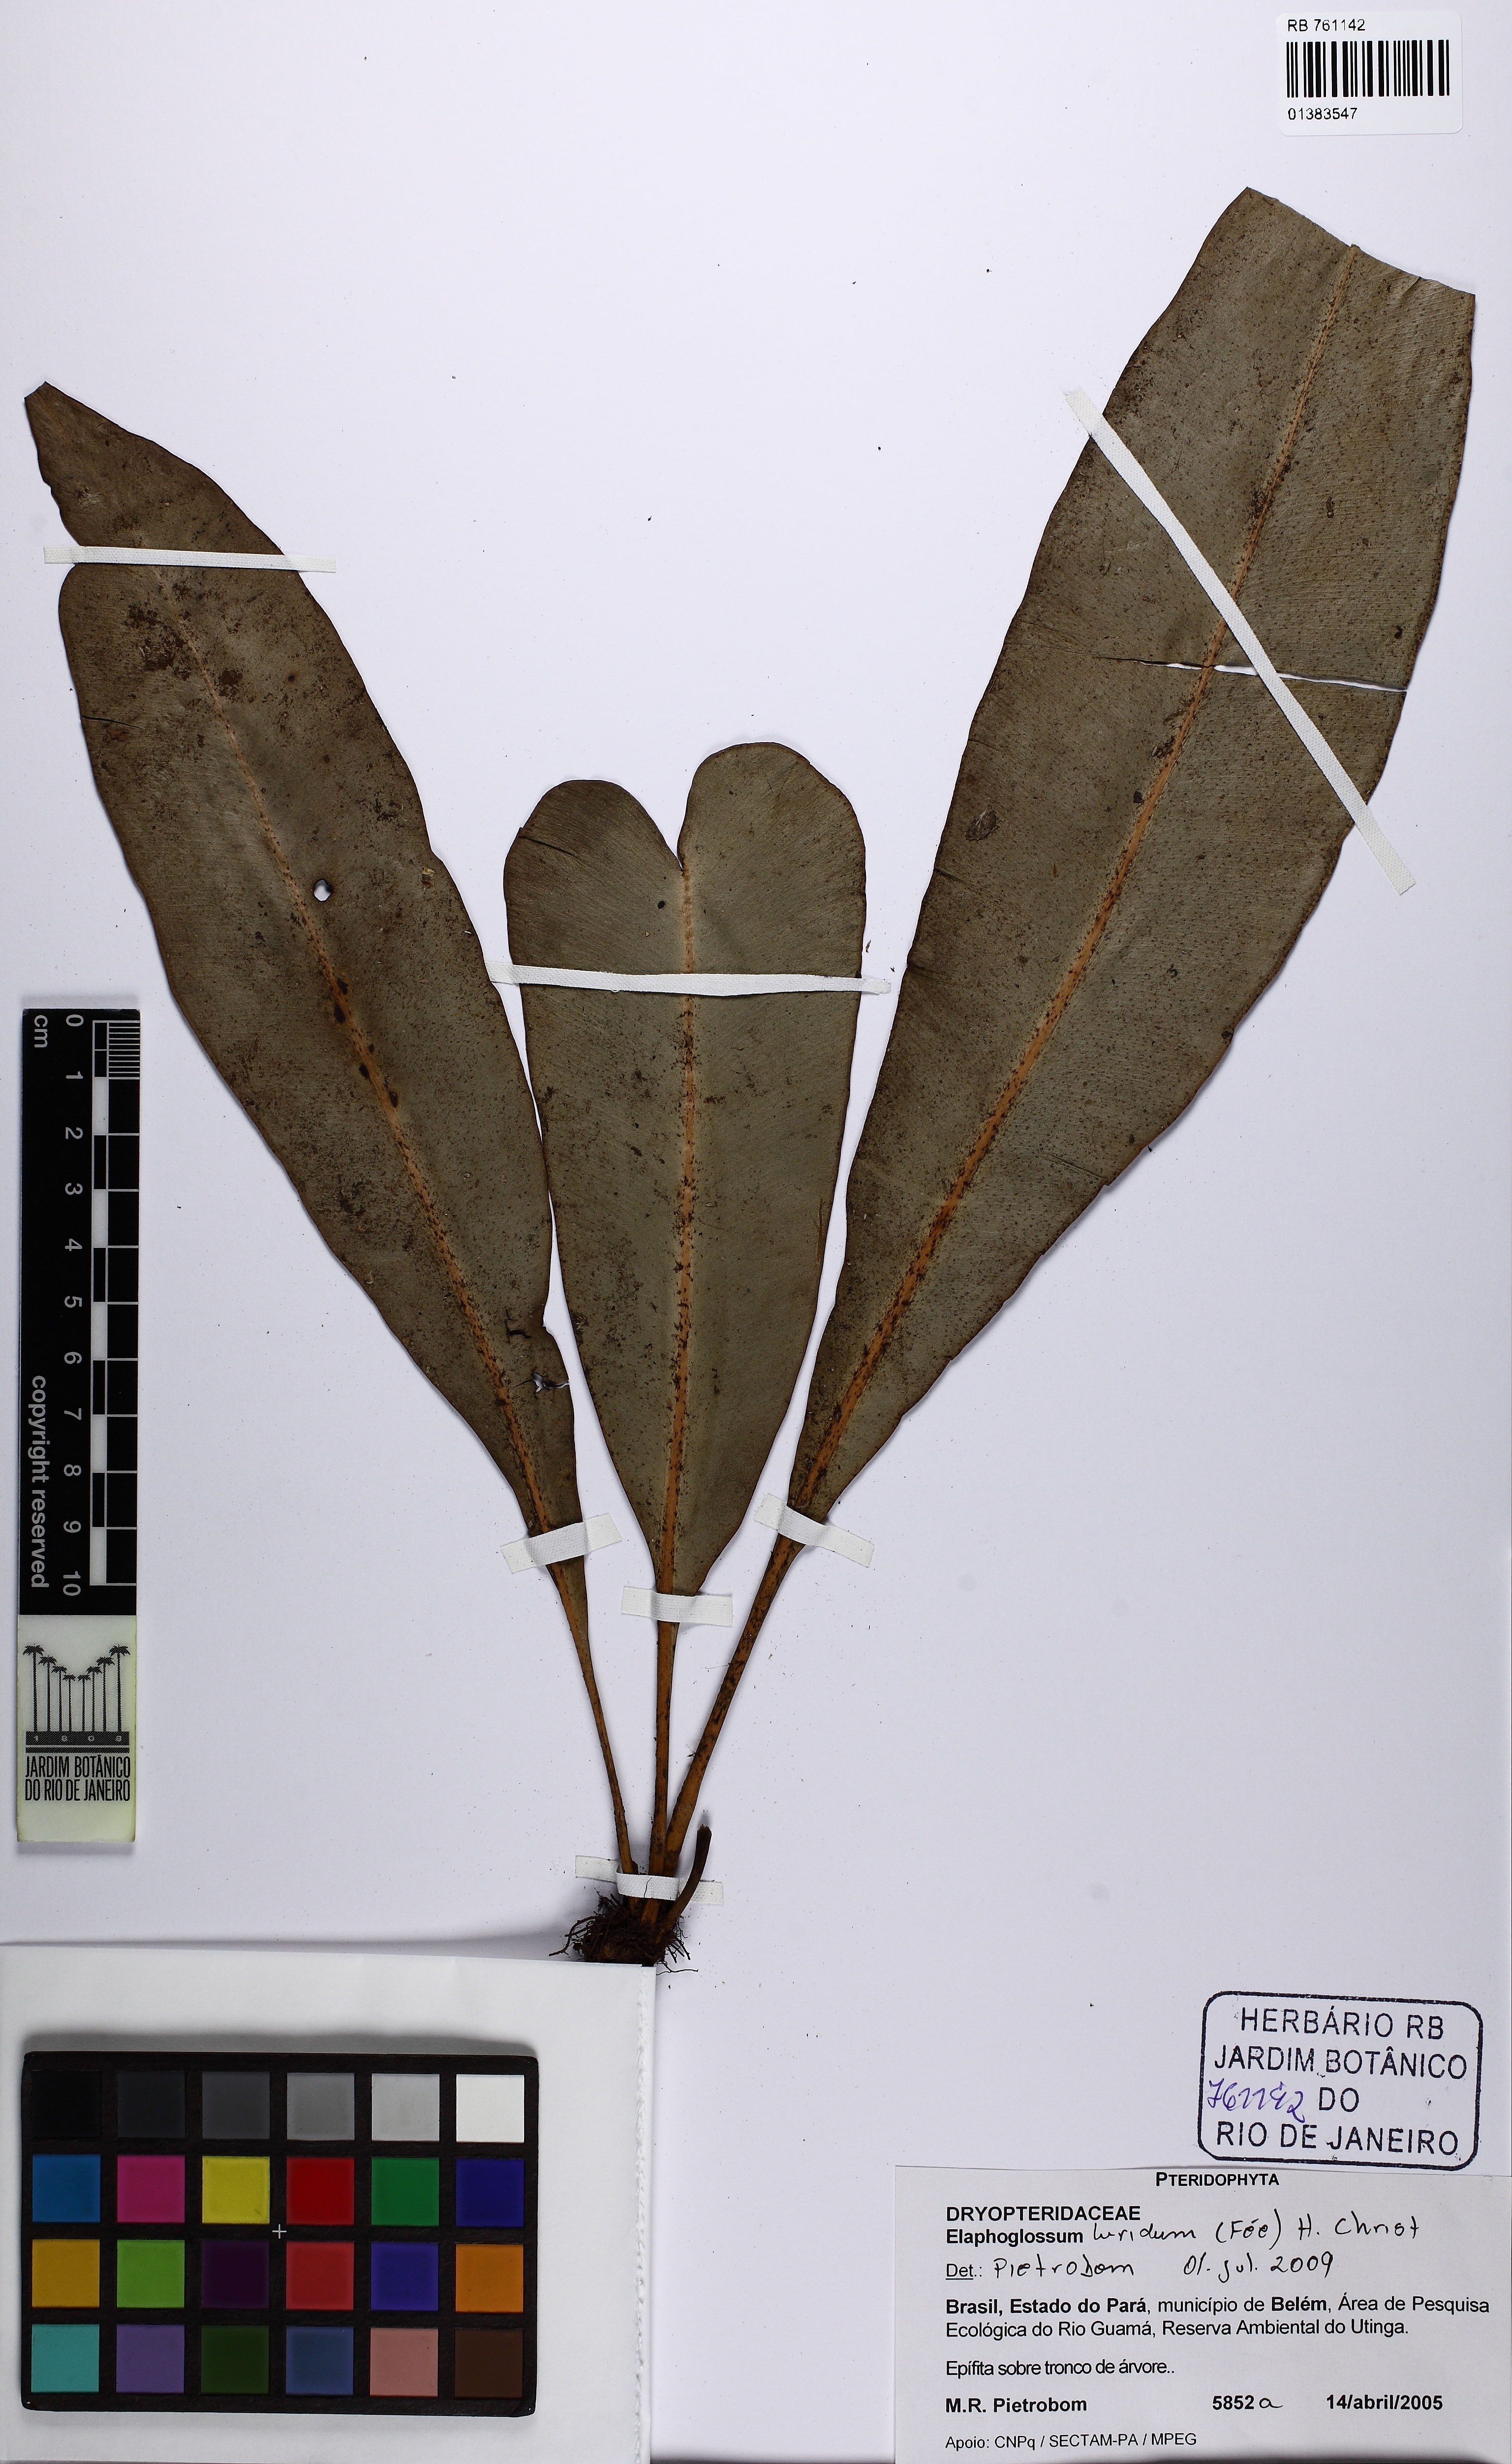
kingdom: Plantae
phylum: Tracheophyta
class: Polypodiopsida
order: Polypodiales
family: Dryopteridaceae
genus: Elaphoglossum
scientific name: Elaphoglossum luridum
